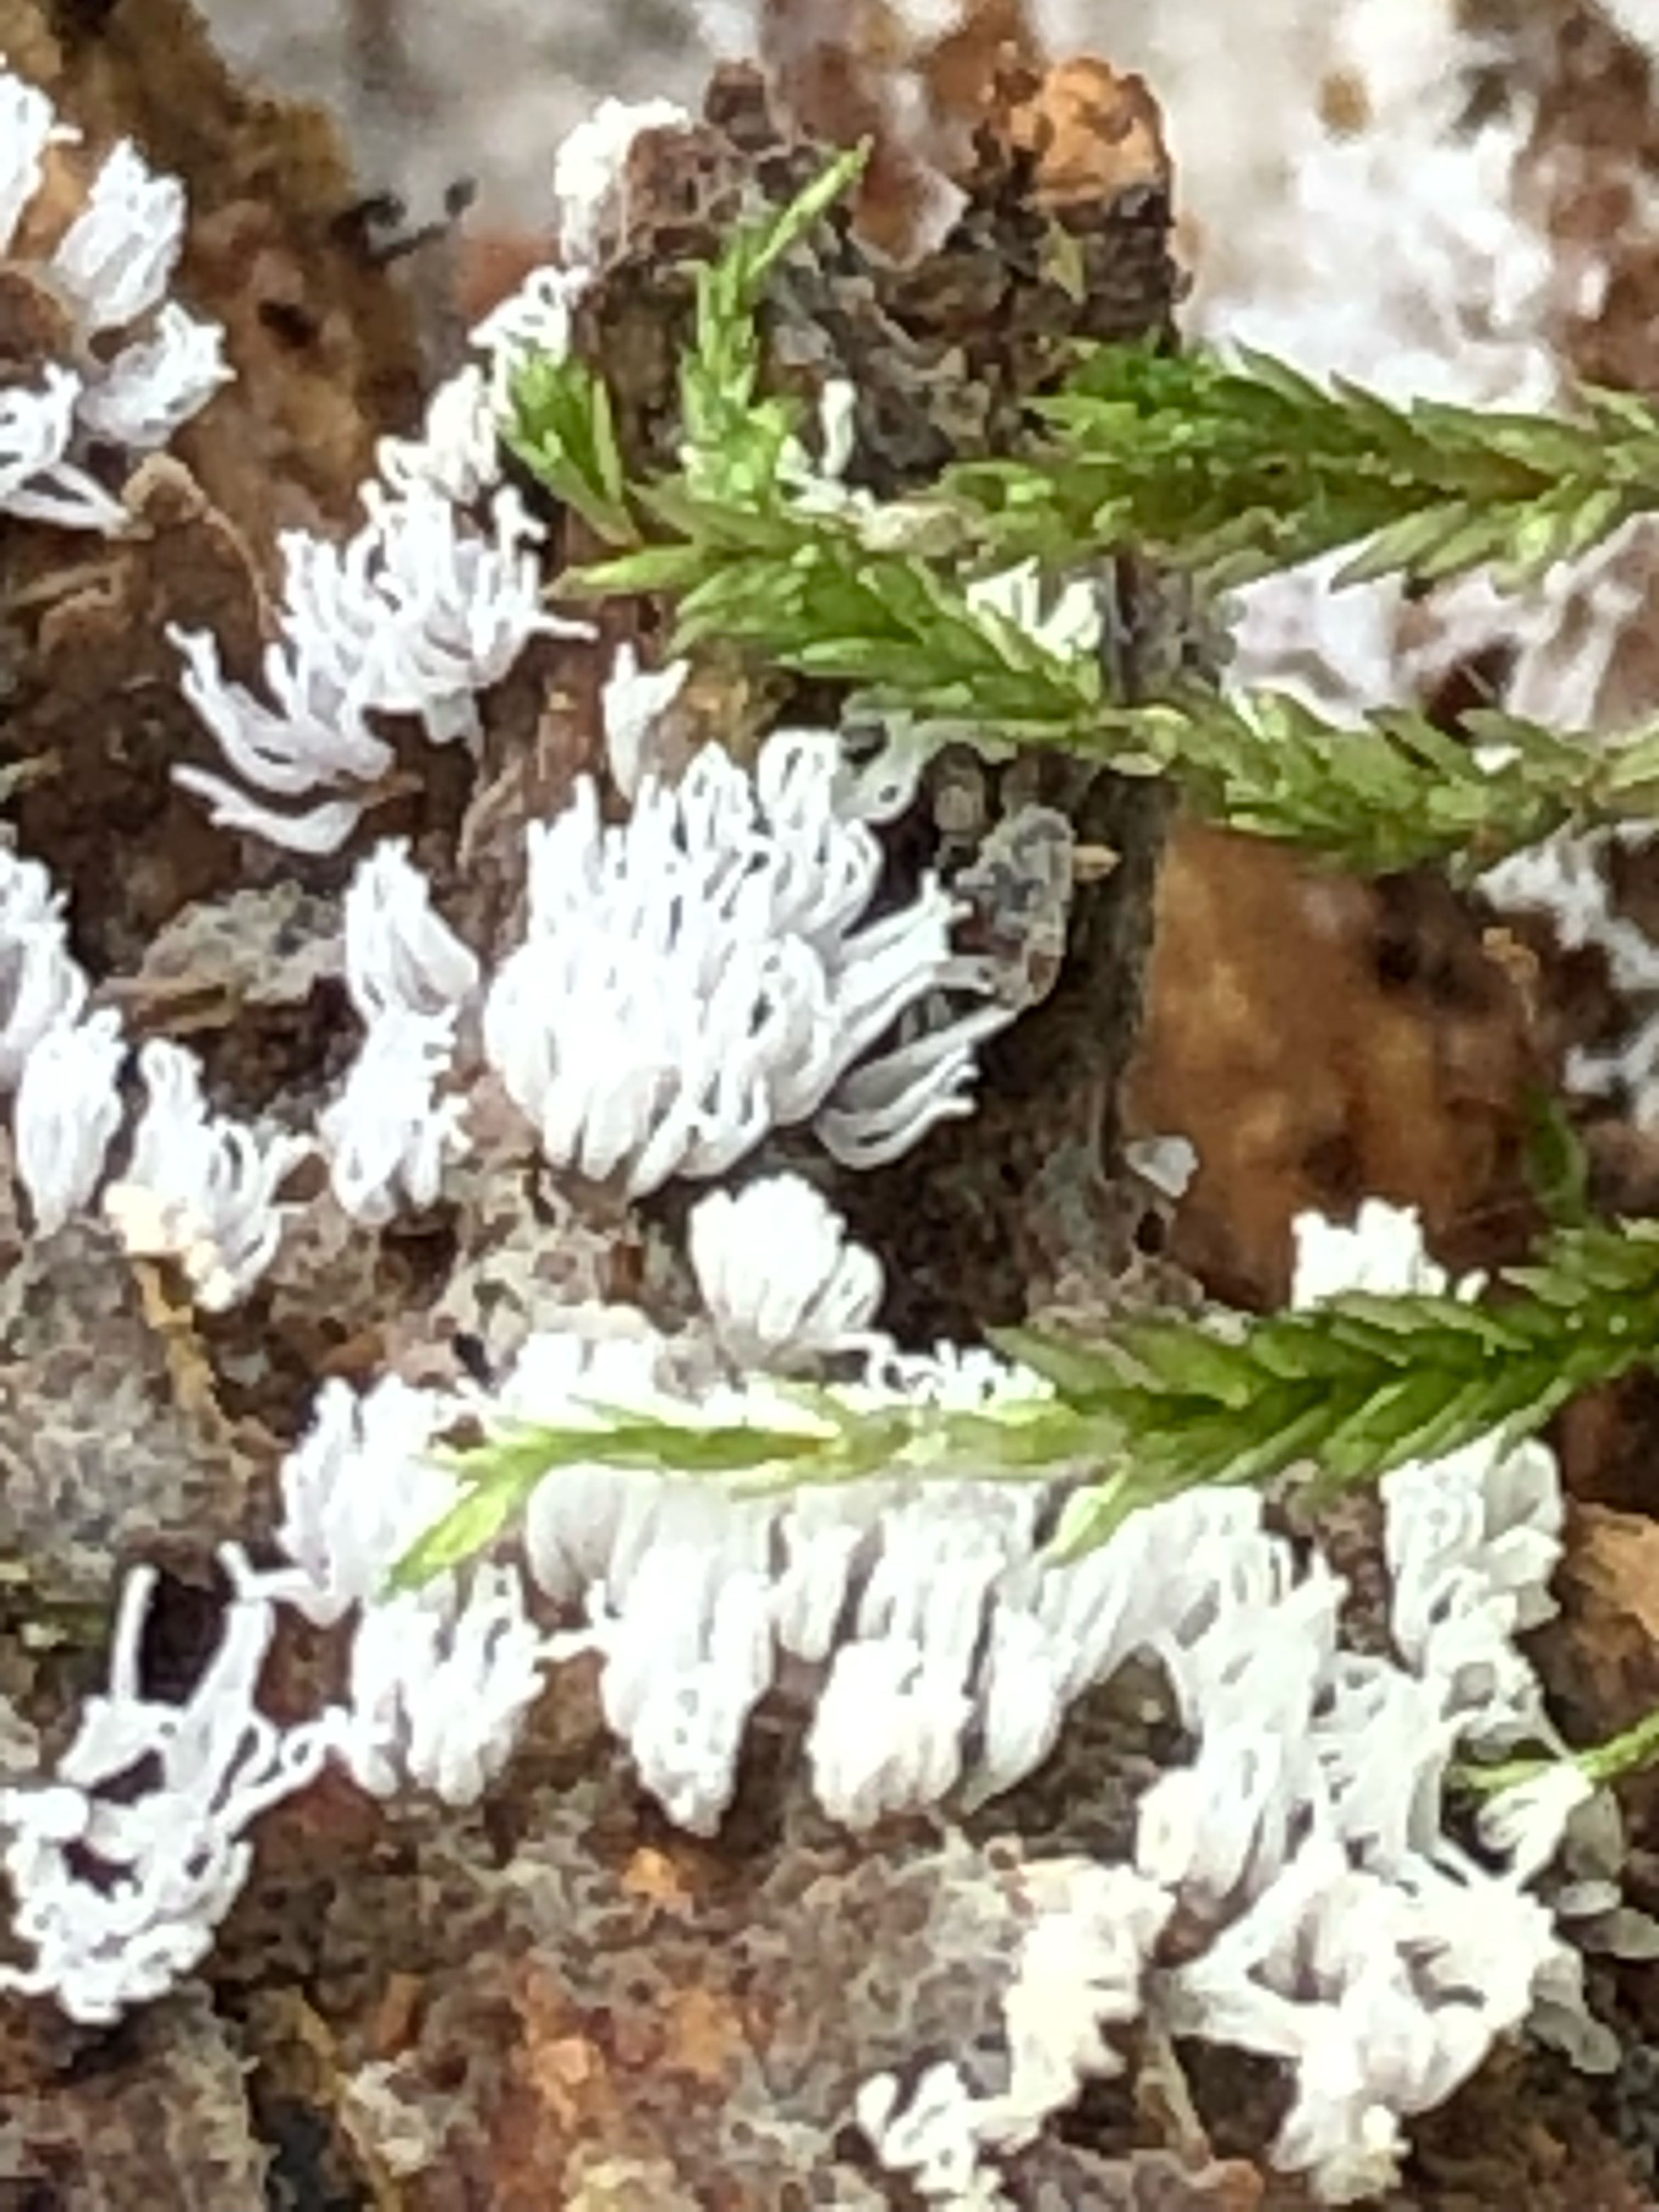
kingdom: Protozoa
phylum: Mycetozoa
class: Protosteliomycetes
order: Ceratiomyxales
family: Ceratiomyxaceae
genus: Ceratiomyxa
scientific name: Ceratiomyxa fruticulosa
